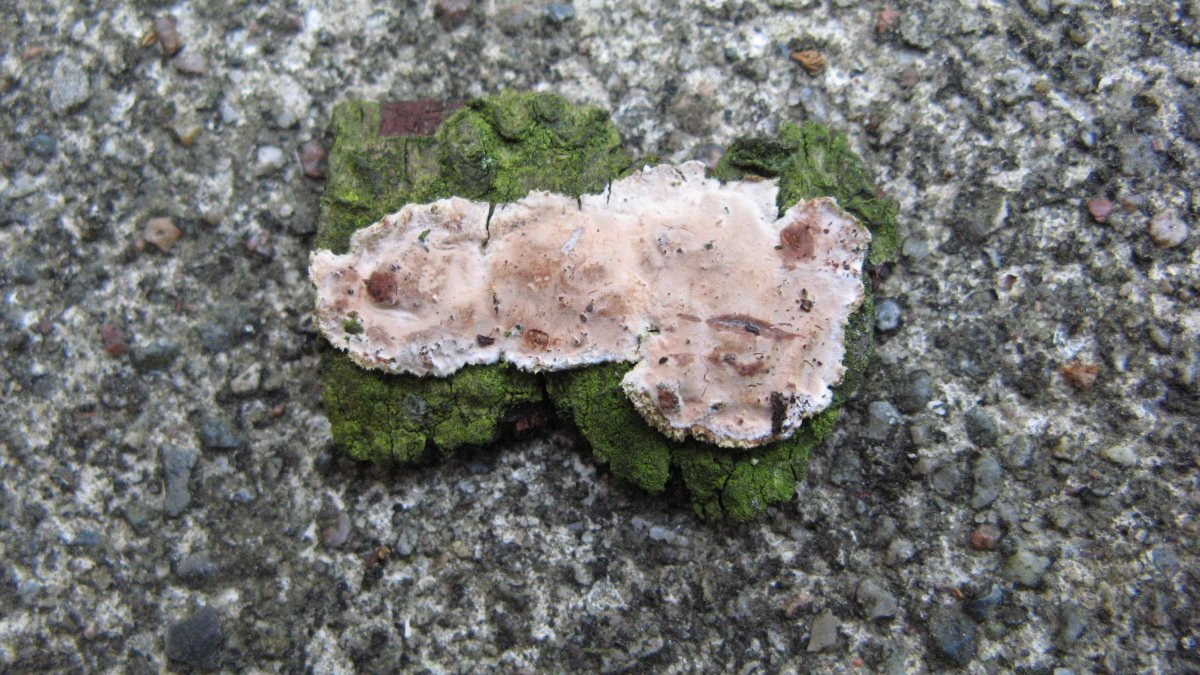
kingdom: Fungi
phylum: Basidiomycota
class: Agaricomycetes
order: Auriculariales
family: Auriculariaceae
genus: Heteroradulum
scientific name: Heteroradulum deglubens
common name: bævreskorpe
